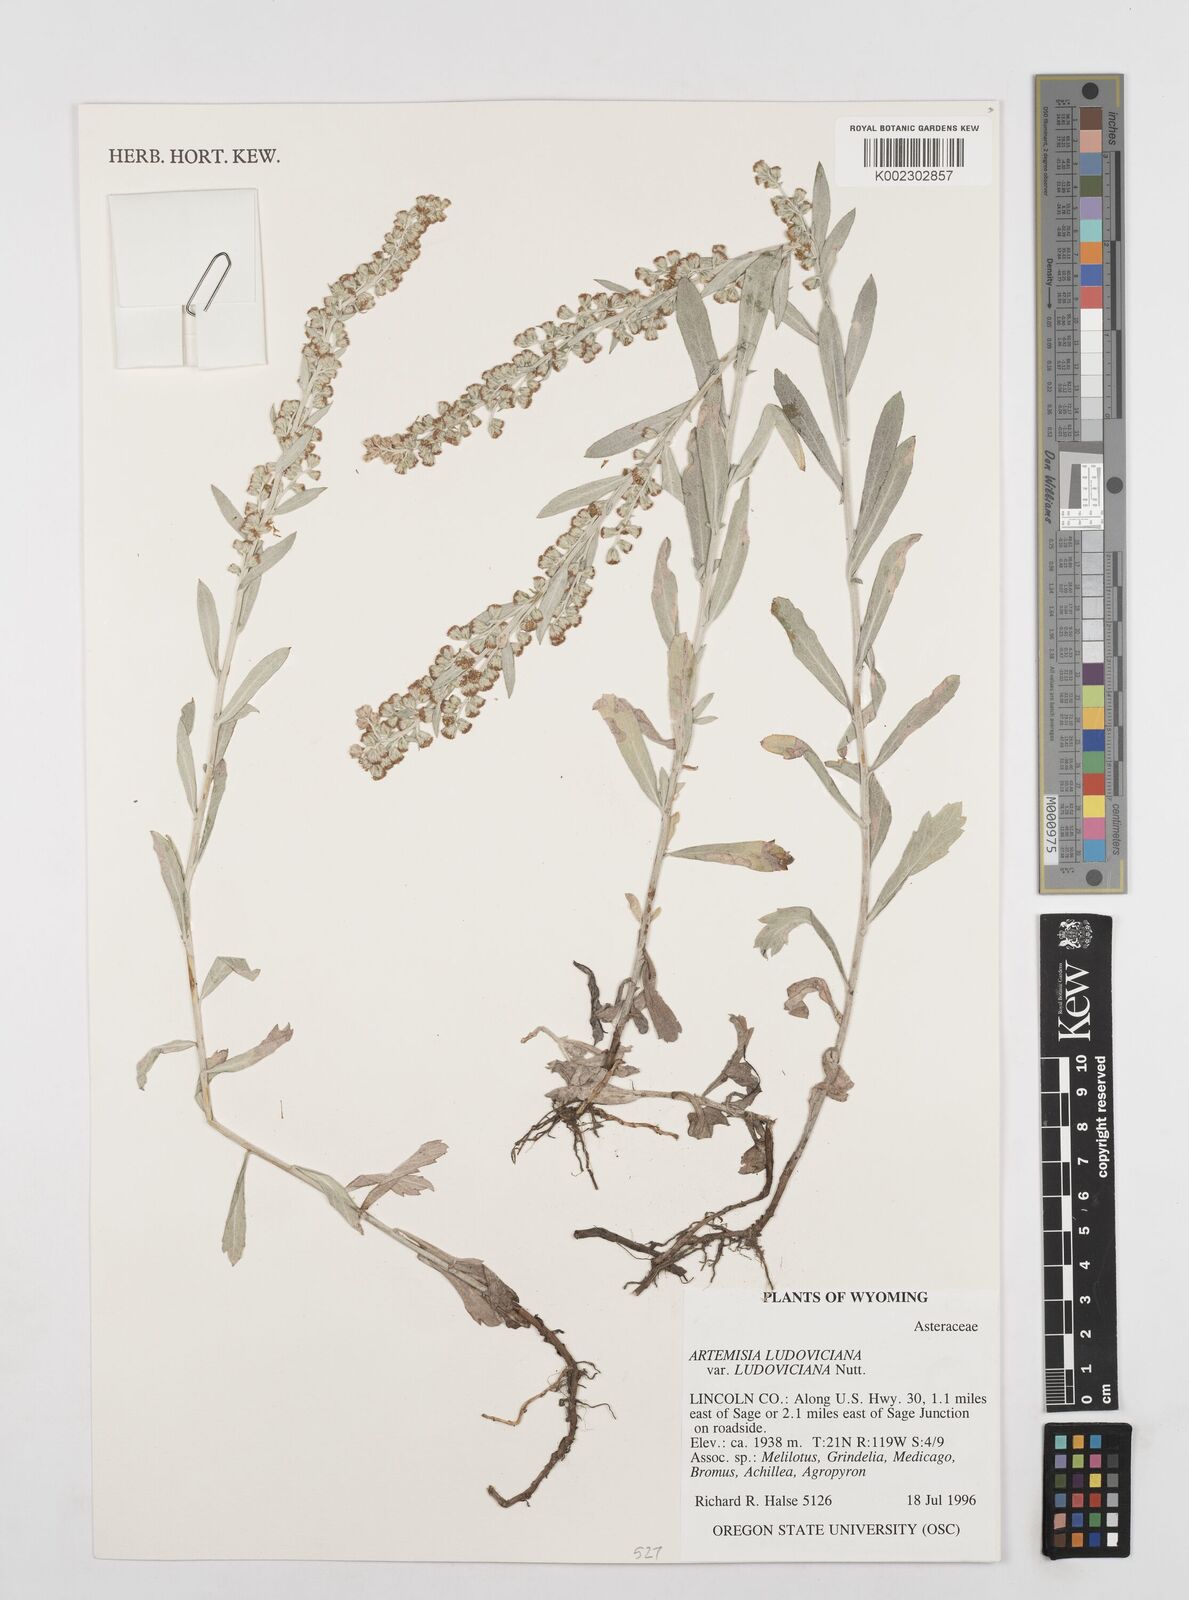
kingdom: Plantae
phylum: Tracheophyta
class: Magnoliopsida
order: Asterales
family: Asteraceae
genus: Artemisia
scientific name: Artemisia ludoviciana
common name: Western mugwort
